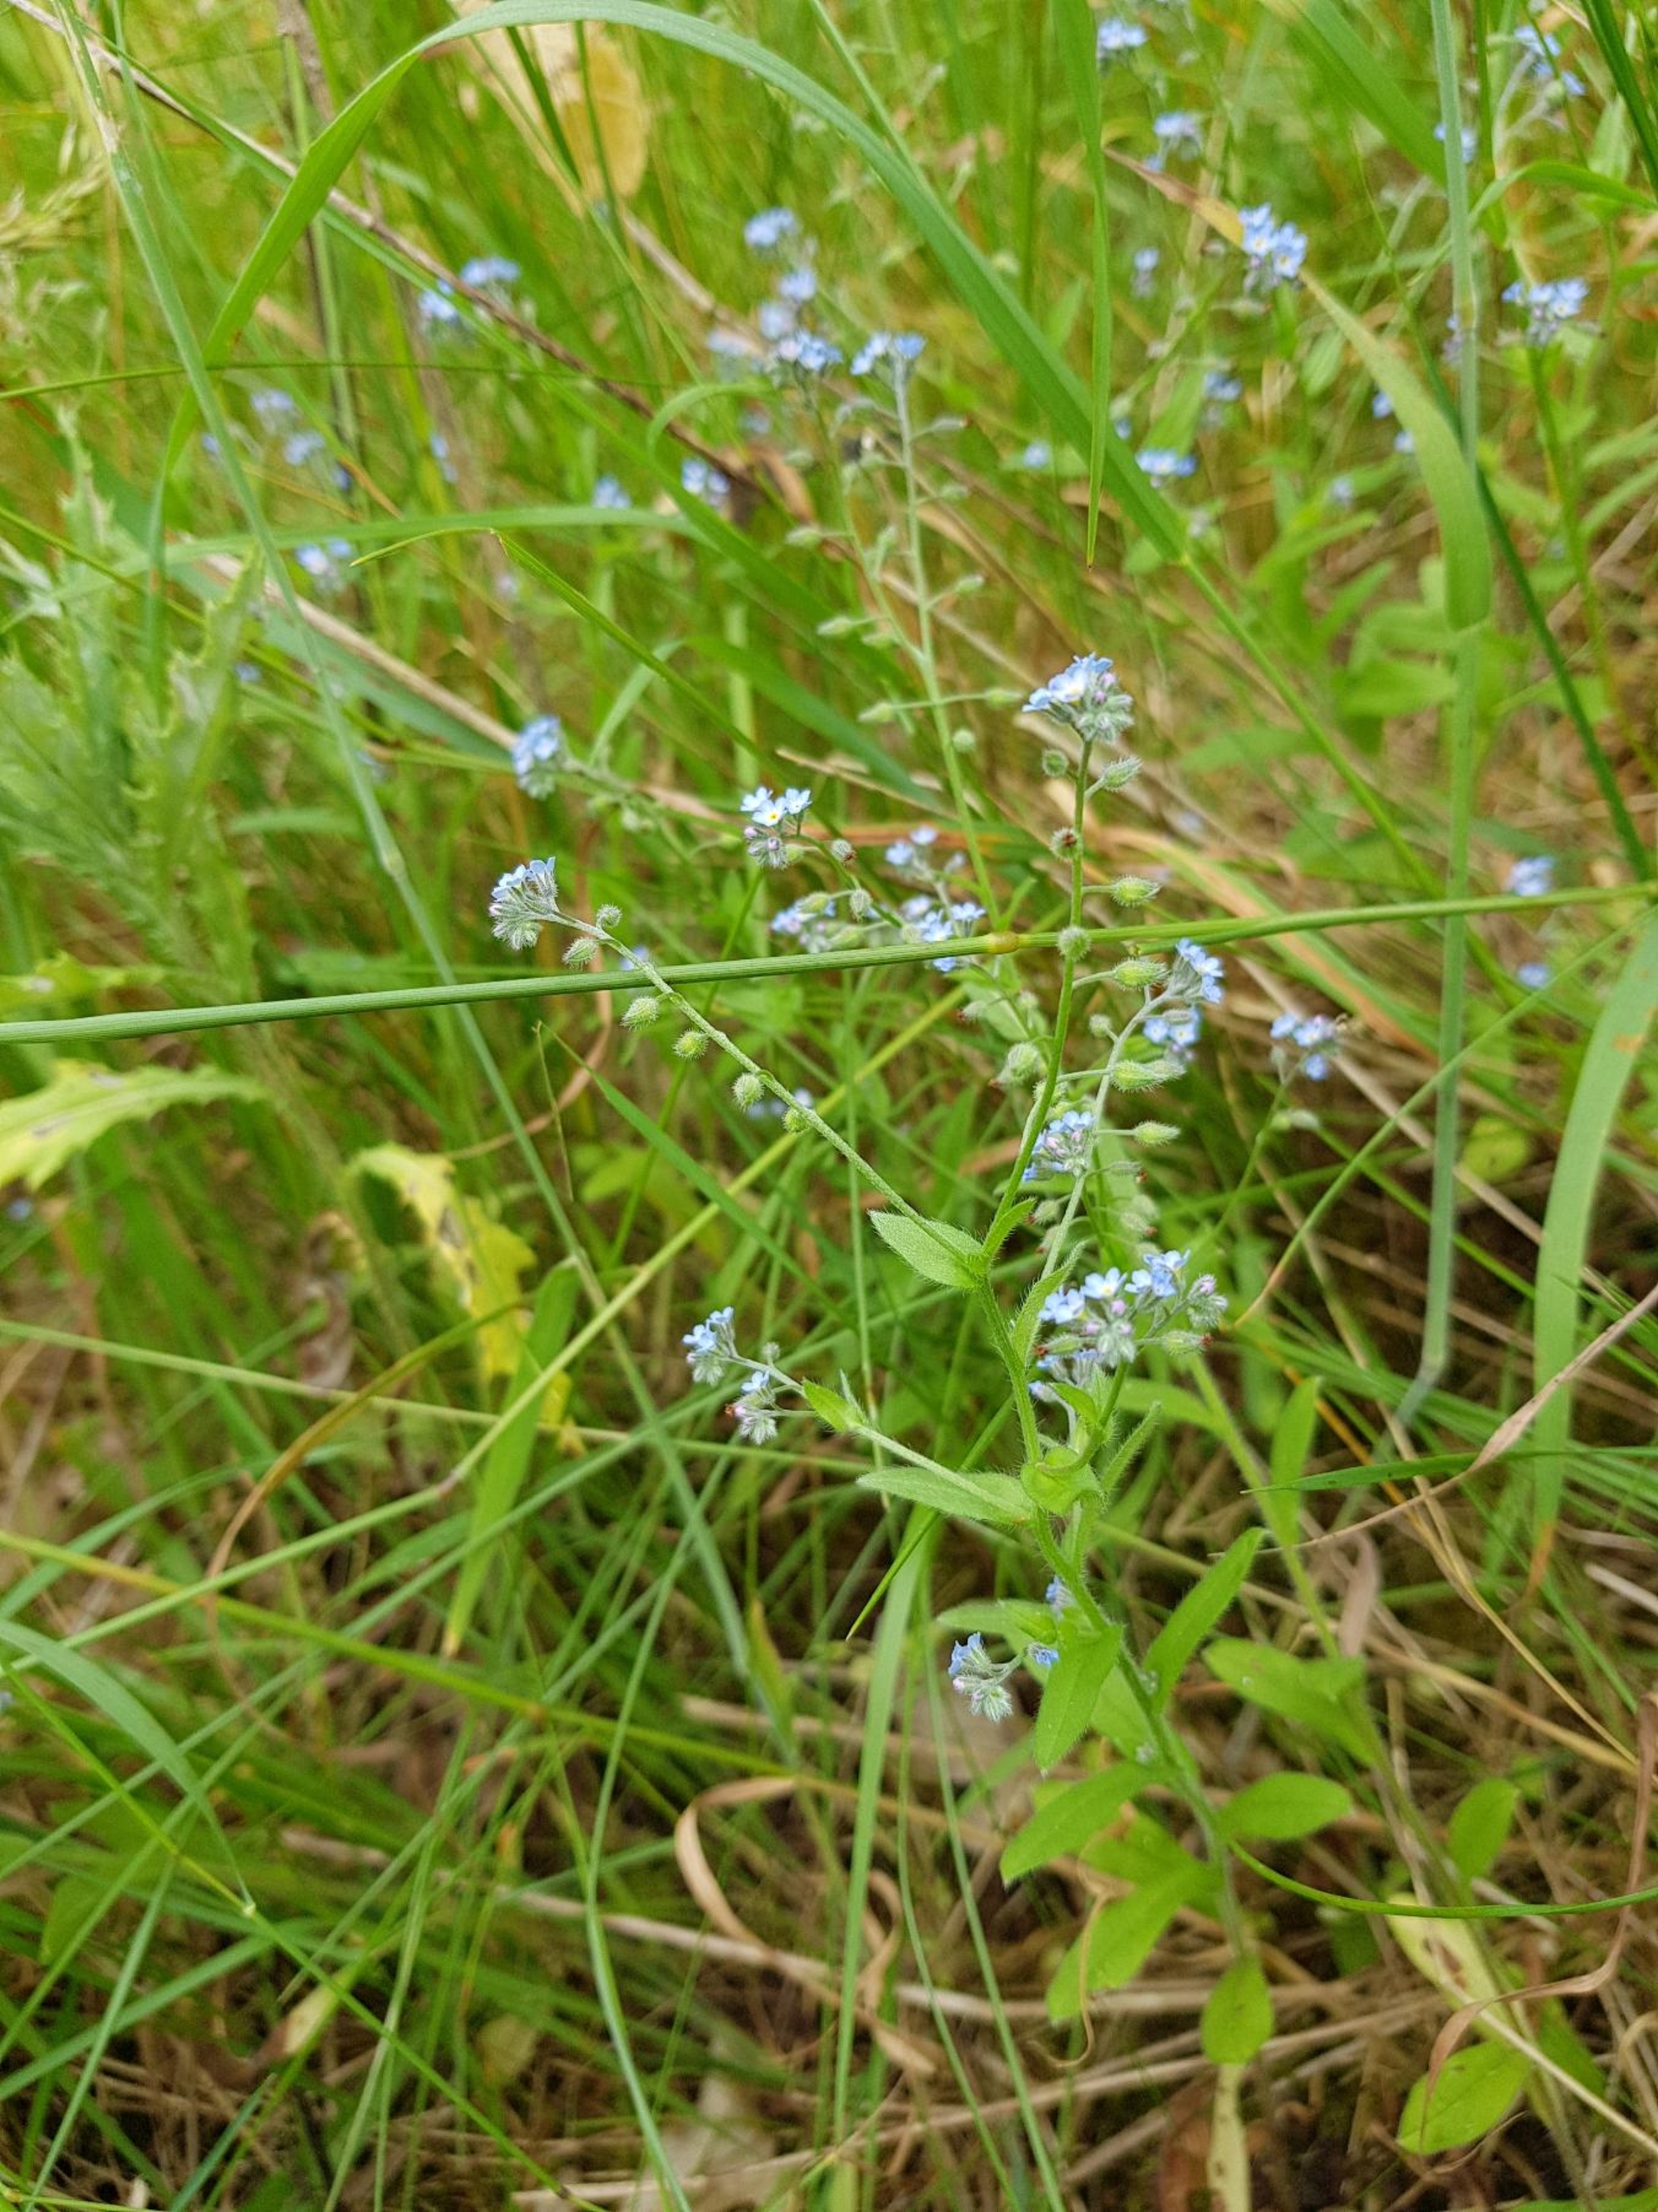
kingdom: Plantae
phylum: Tracheophyta
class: Magnoliopsida
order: Boraginales
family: Boraginaceae
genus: Myosotis
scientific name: Myosotis arvensis
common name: Mark-forglemmigej
